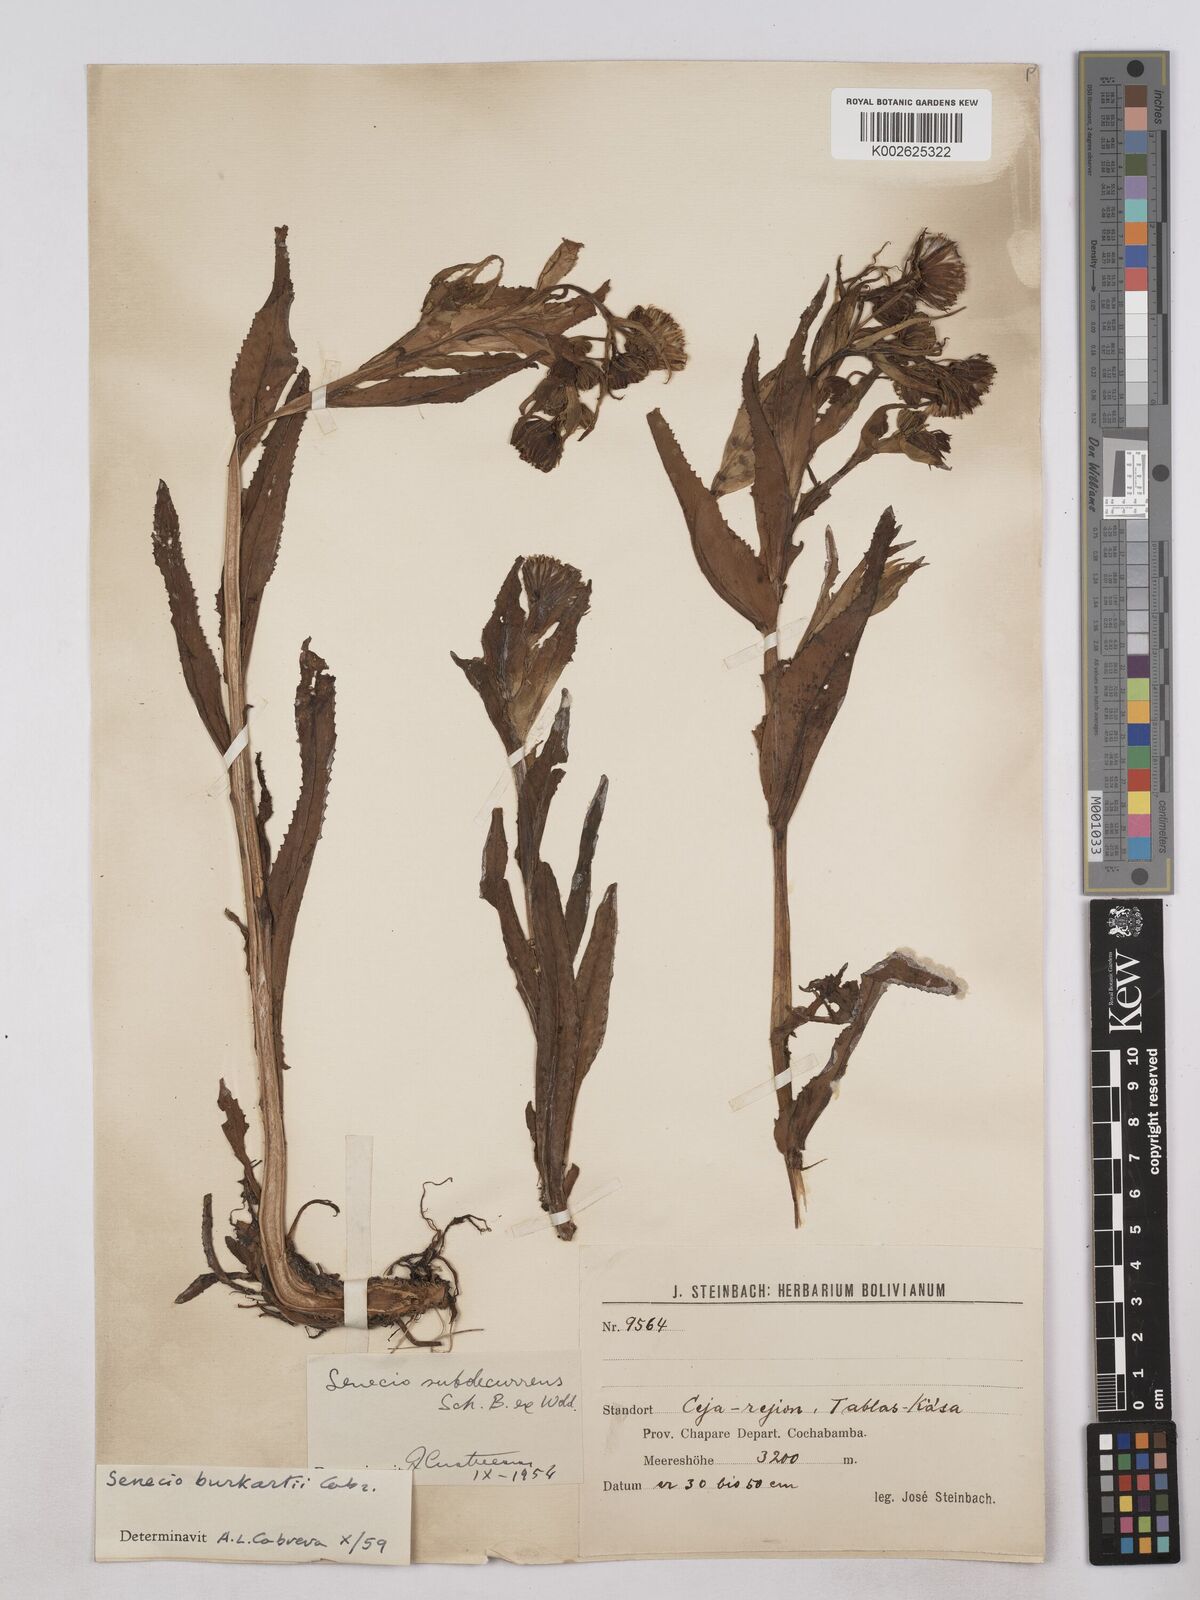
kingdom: Plantae
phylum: Tracheophyta
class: Magnoliopsida
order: Asterales
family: Asteraceae
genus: Senecio
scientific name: Senecio burkartii
